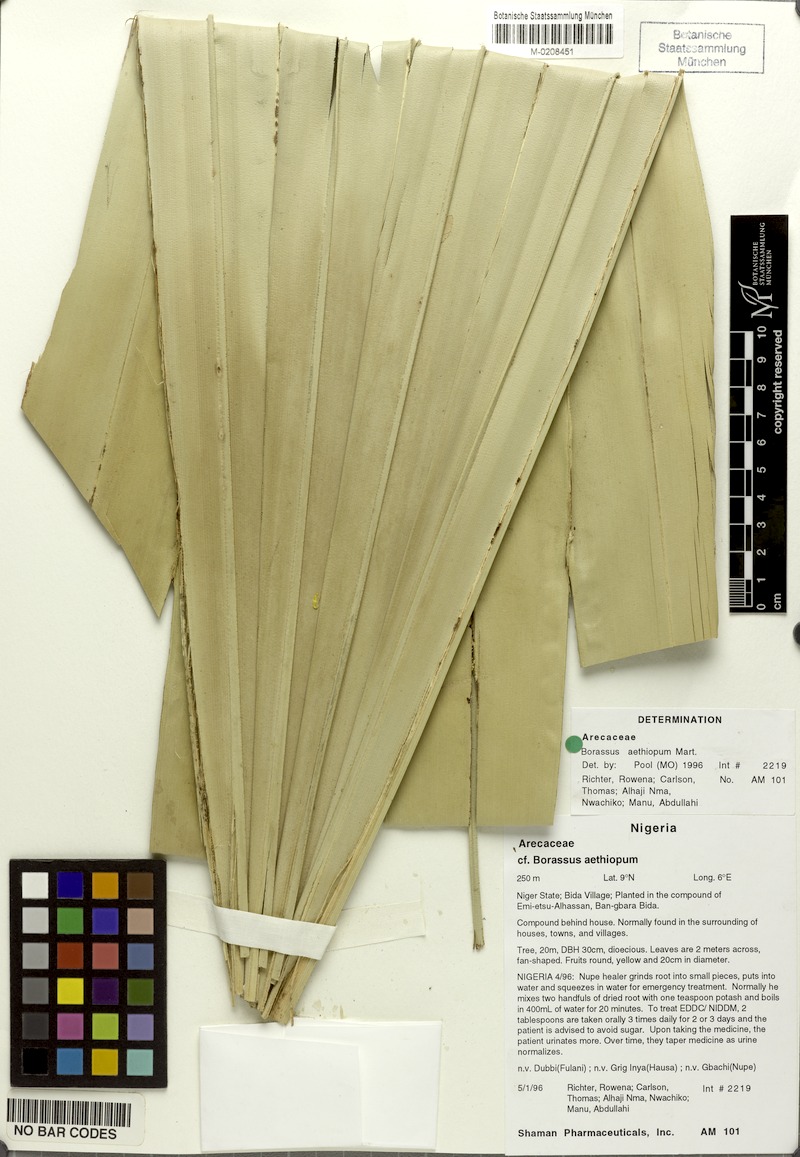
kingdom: Plantae
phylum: Tracheophyta
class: Liliopsida
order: Arecales
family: Arecaceae
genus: Borassus
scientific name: Borassus aethiopum
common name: Elephant palm
